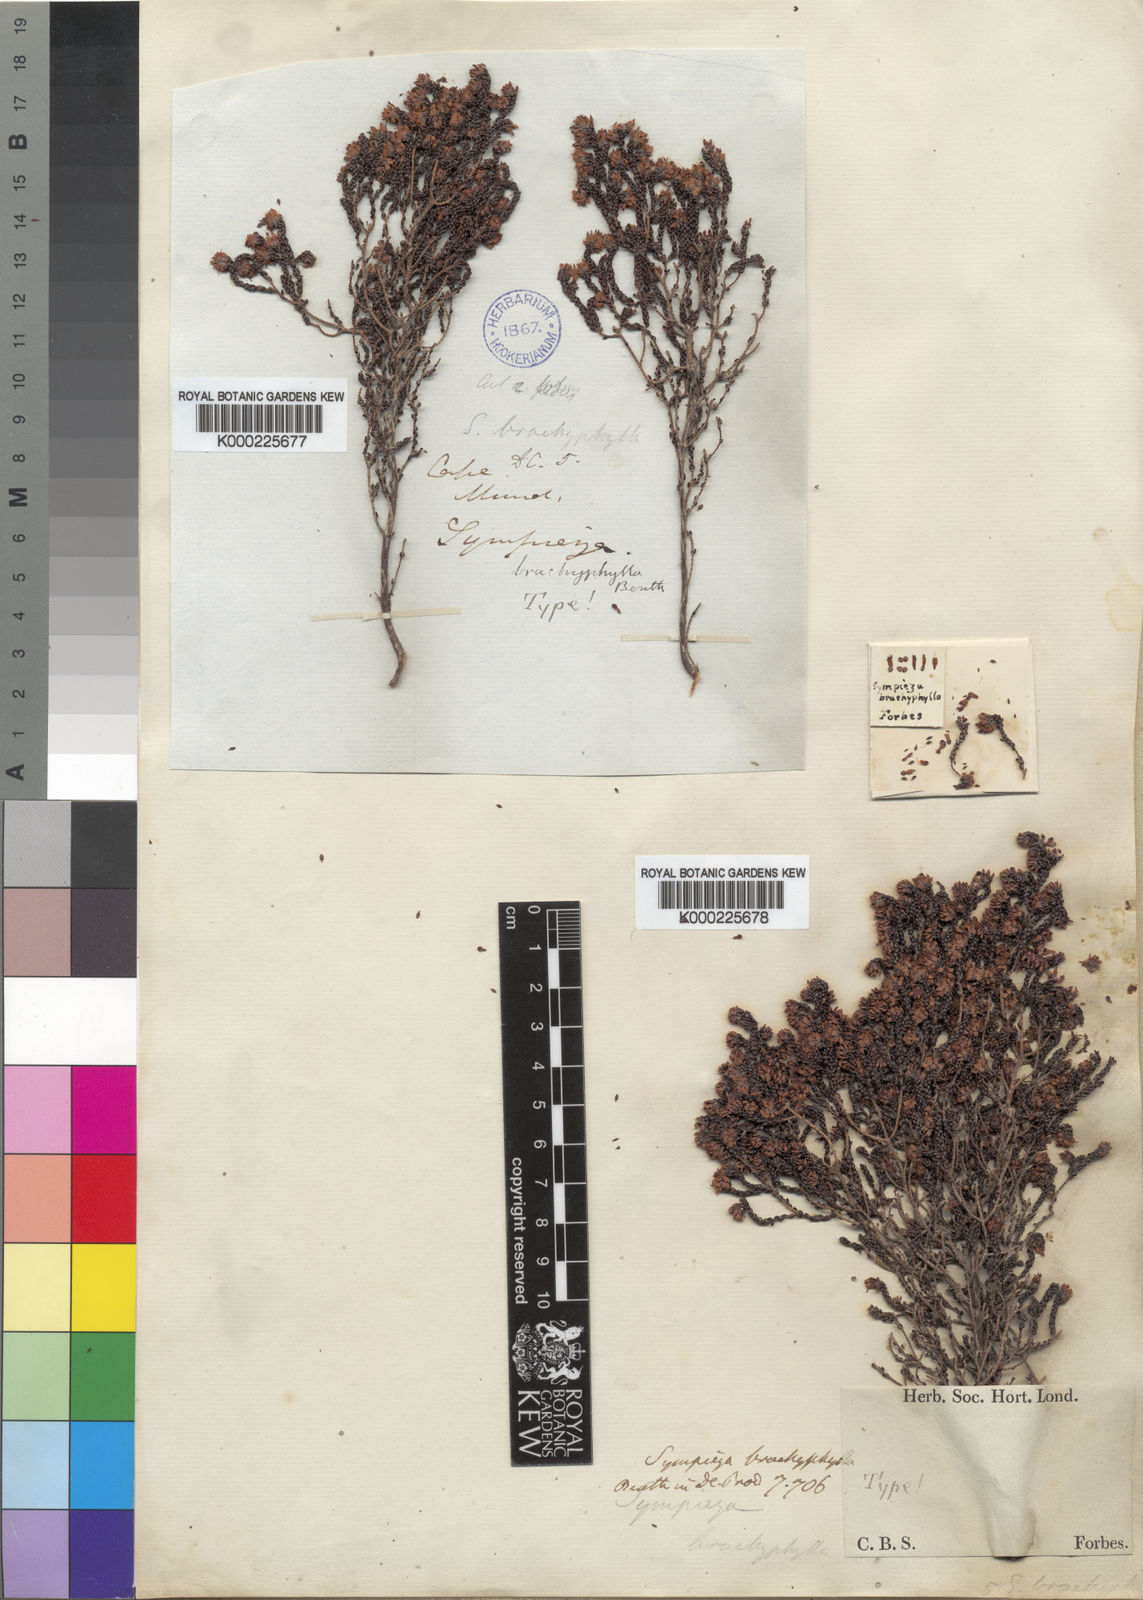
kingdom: Plantae
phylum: Tracheophyta
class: Magnoliopsida
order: Ericales
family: Ericaceae
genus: Erica
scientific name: Erica labialis
